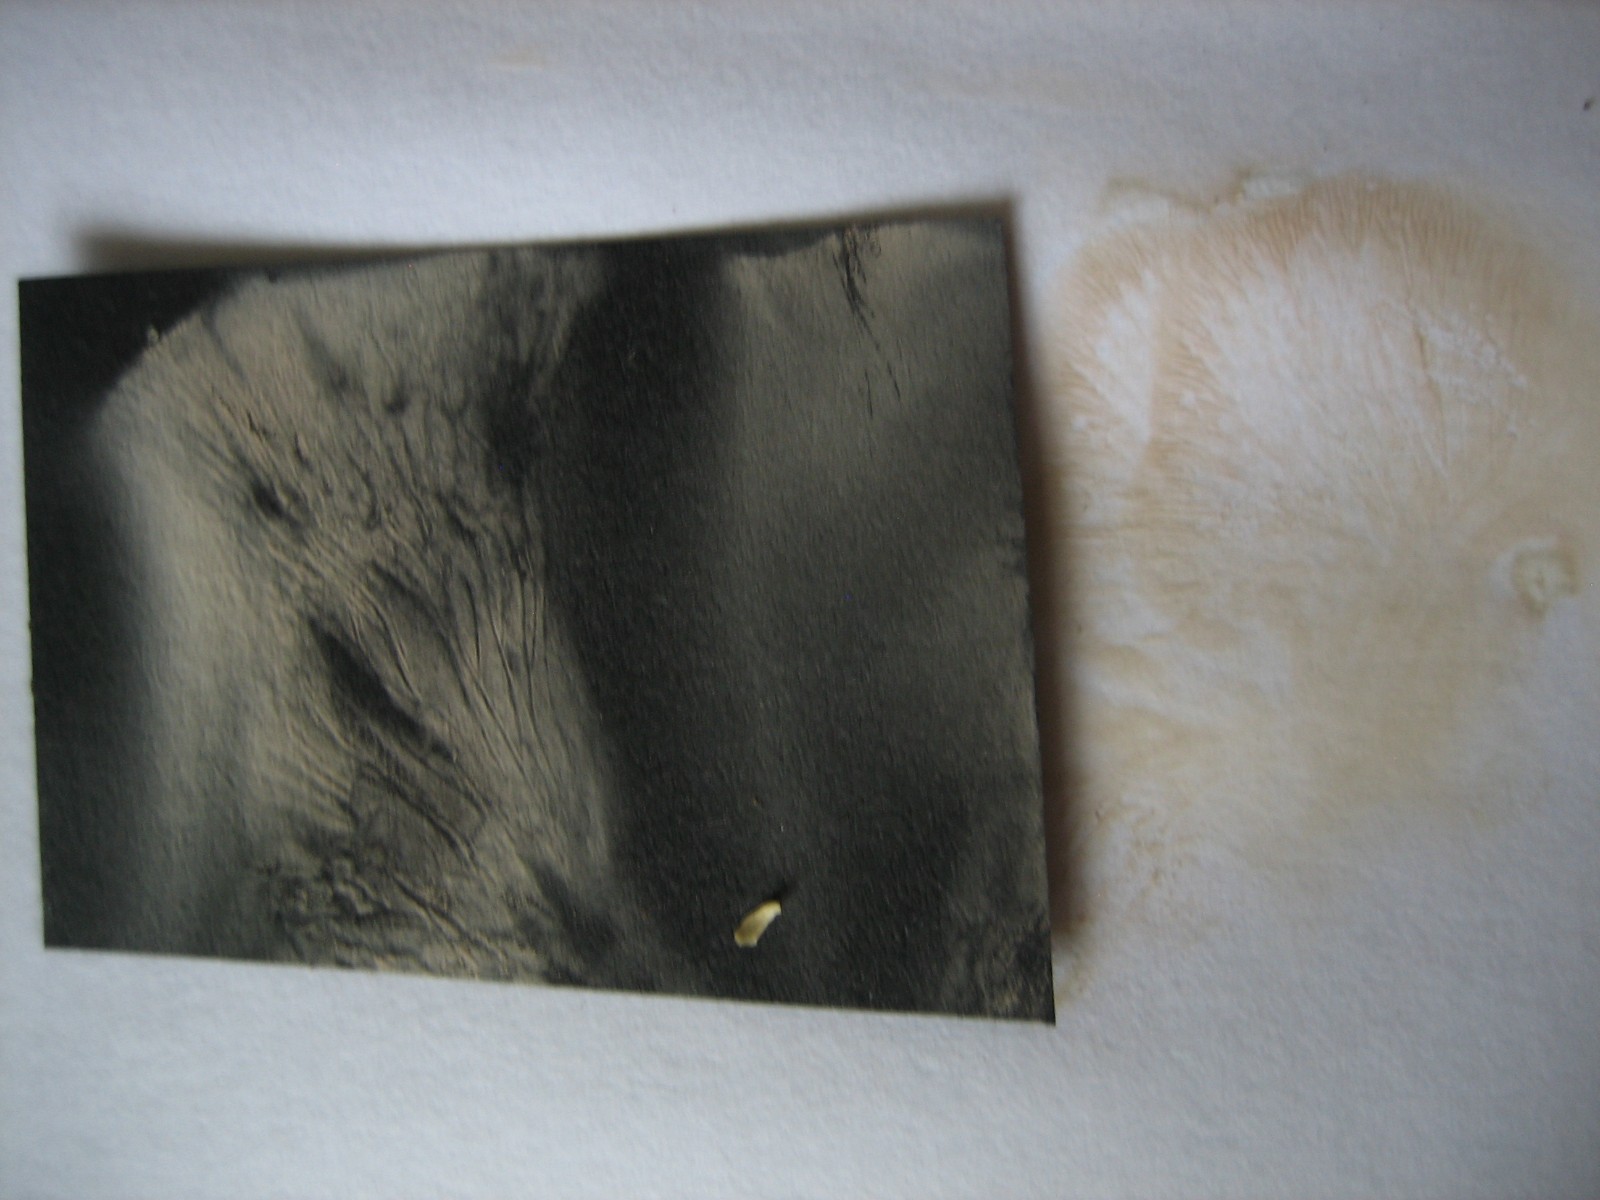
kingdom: Fungi
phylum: Basidiomycota
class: Agaricomycetes
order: Agaricales
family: Entolomataceae
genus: Clitopilus
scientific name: Clitopilus
